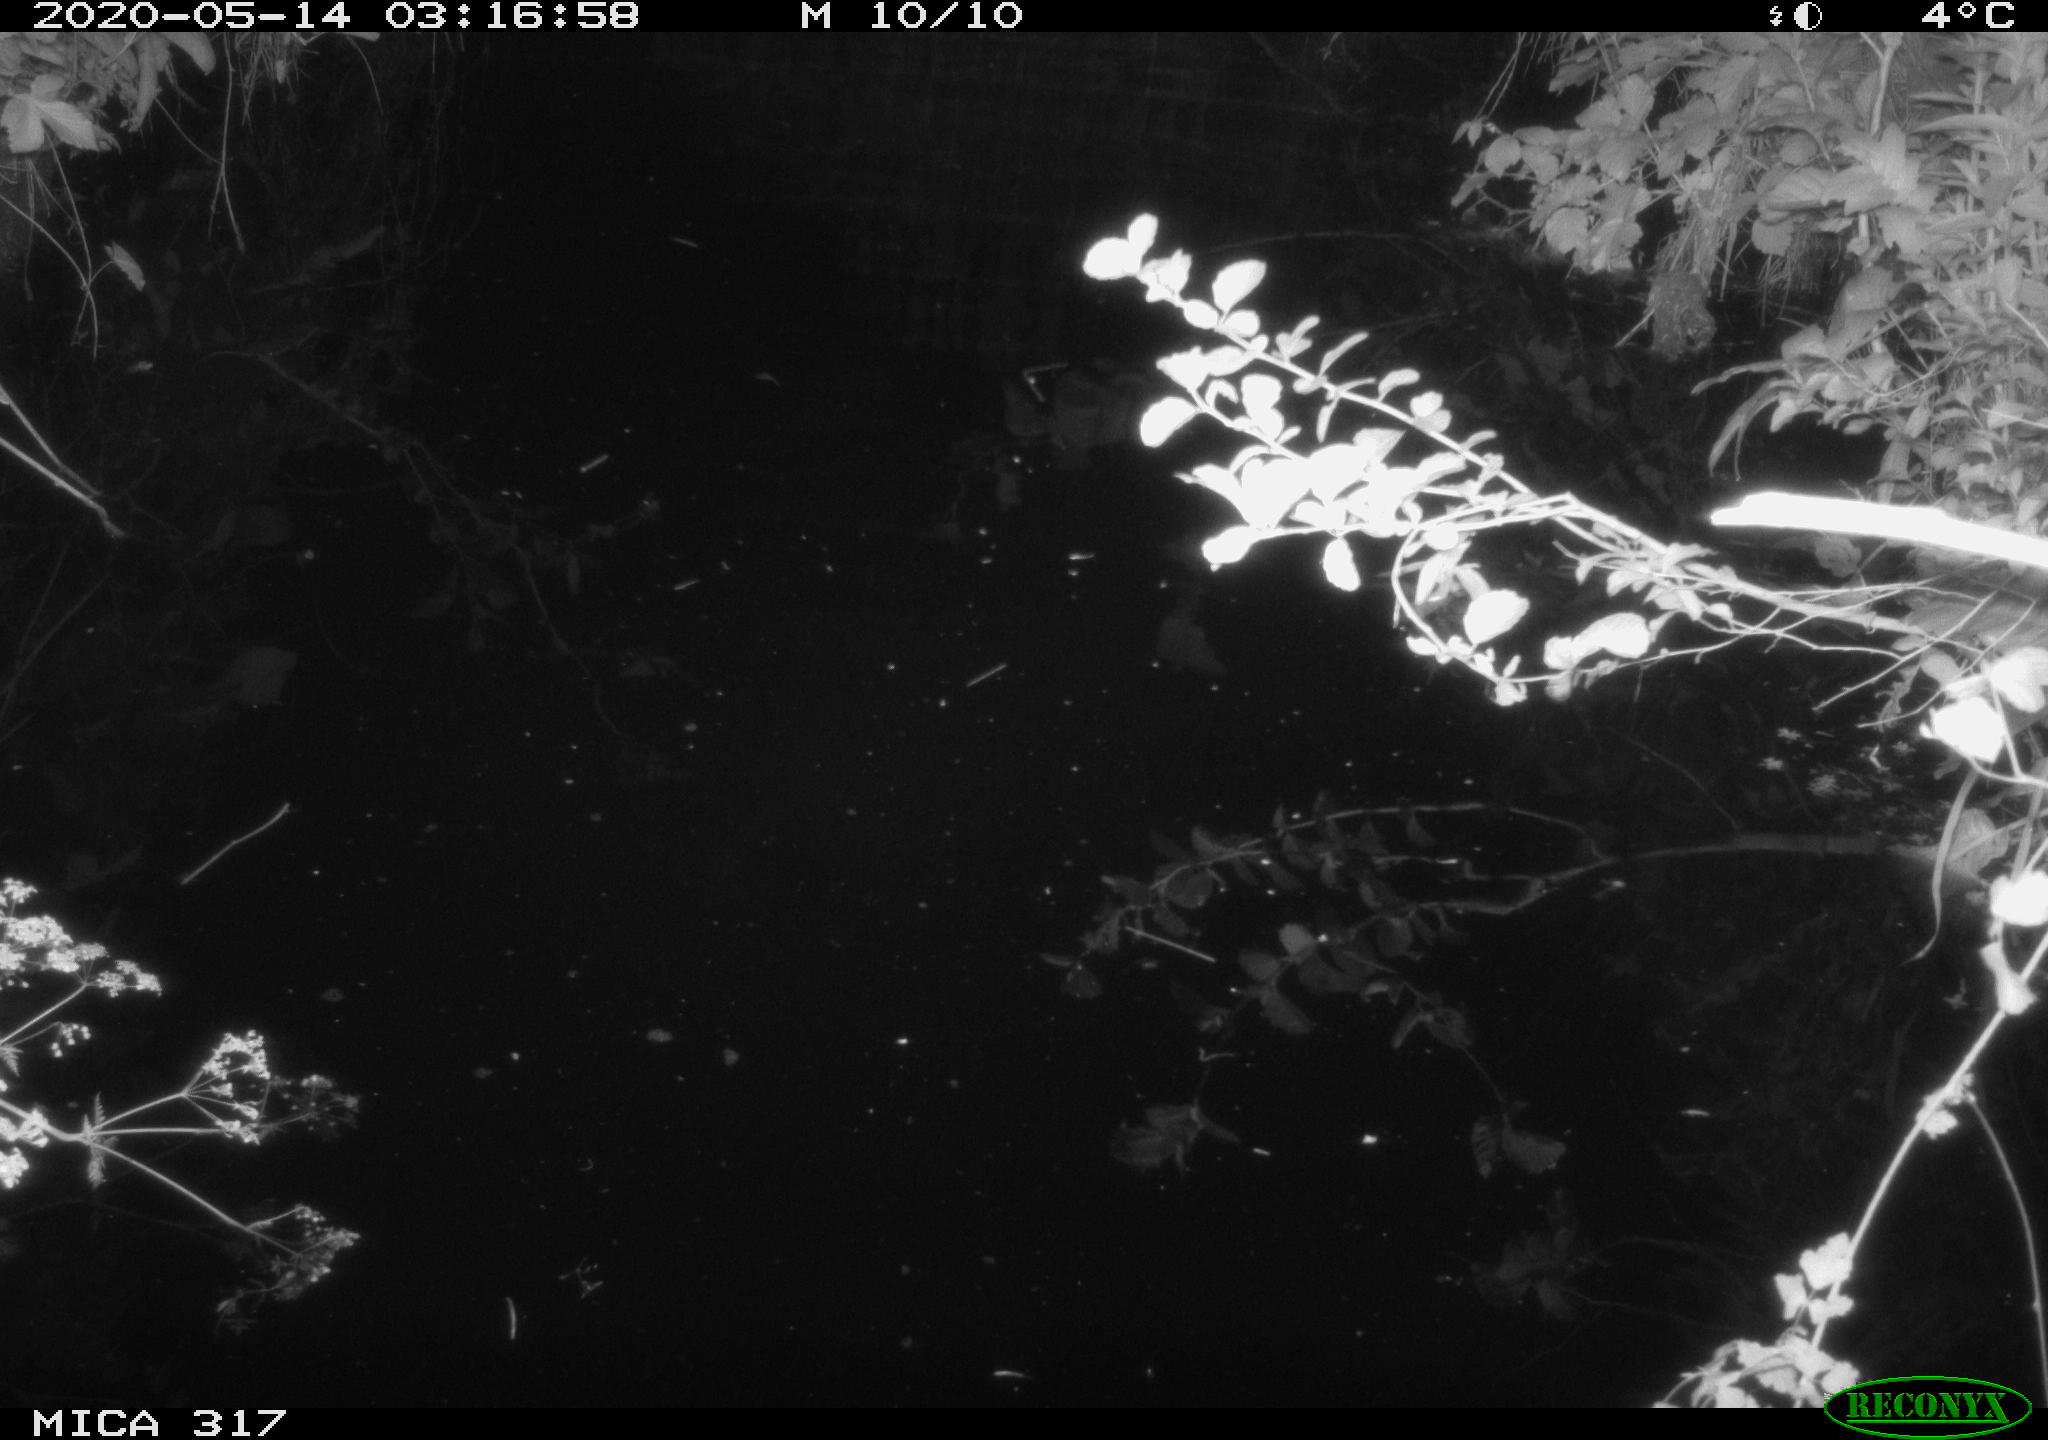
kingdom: Animalia
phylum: Chordata
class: Aves
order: Anseriformes
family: Anatidae
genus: Anas
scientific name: Anas platyrhynchos
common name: Mallard
